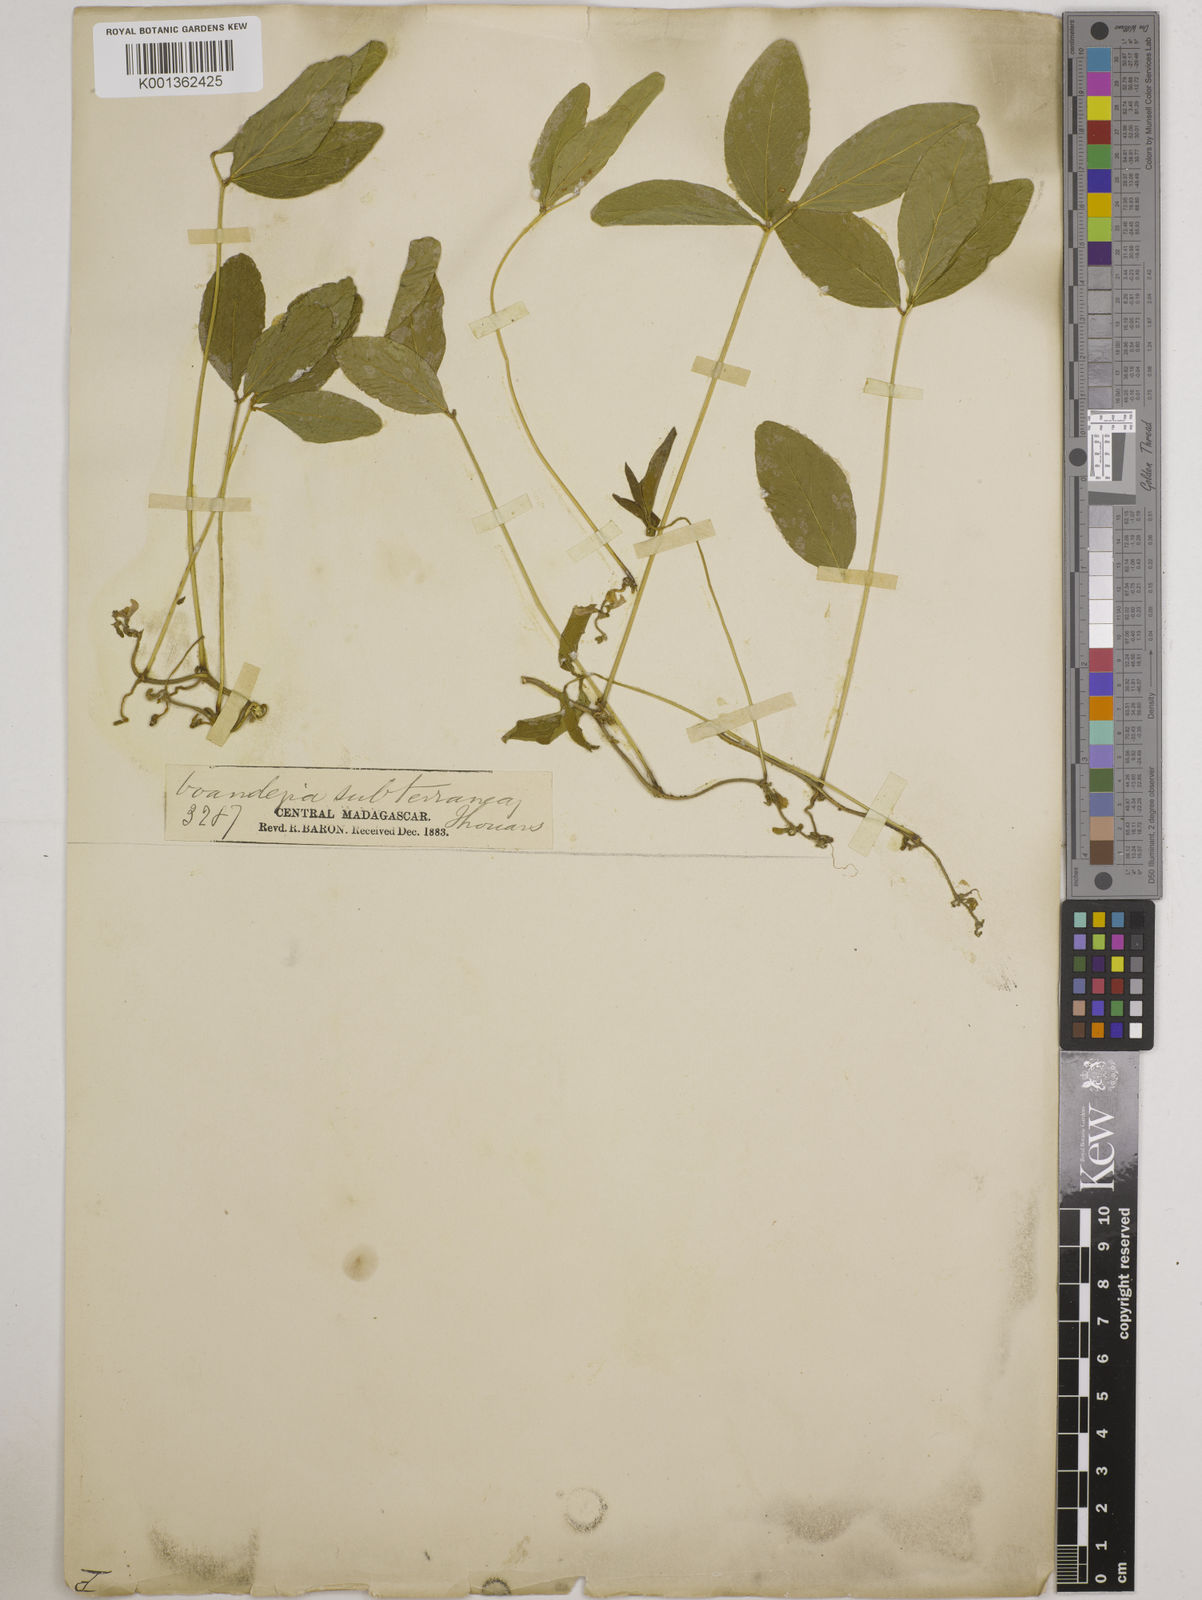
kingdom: Plantae
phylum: Tracheophyta
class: Magnoliopsida
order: Fabales
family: Fabaceae
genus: Vigna
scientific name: Vigna subterranea
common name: Bambara groundnut
